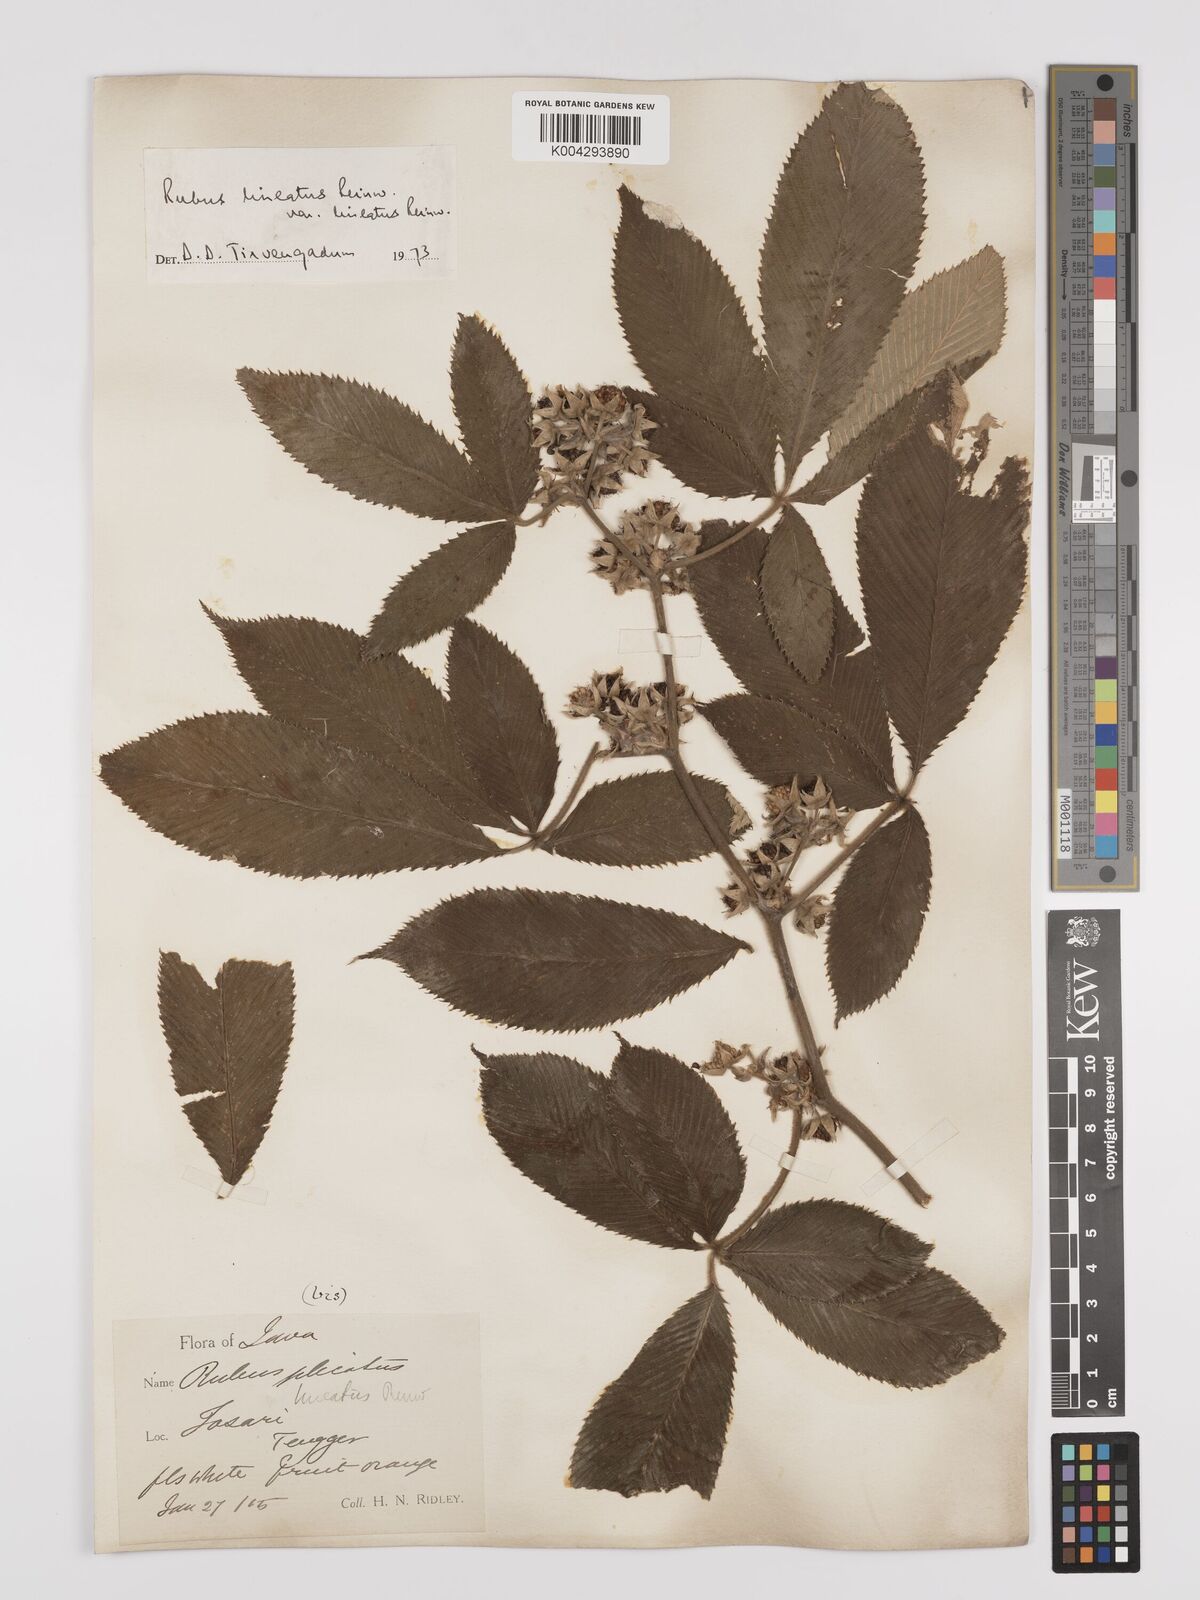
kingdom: Plantae
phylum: Tracheophyta
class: Magnoliopsida
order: Rosales
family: Rosaceae
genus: Rubus
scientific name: Rubus lineatus
